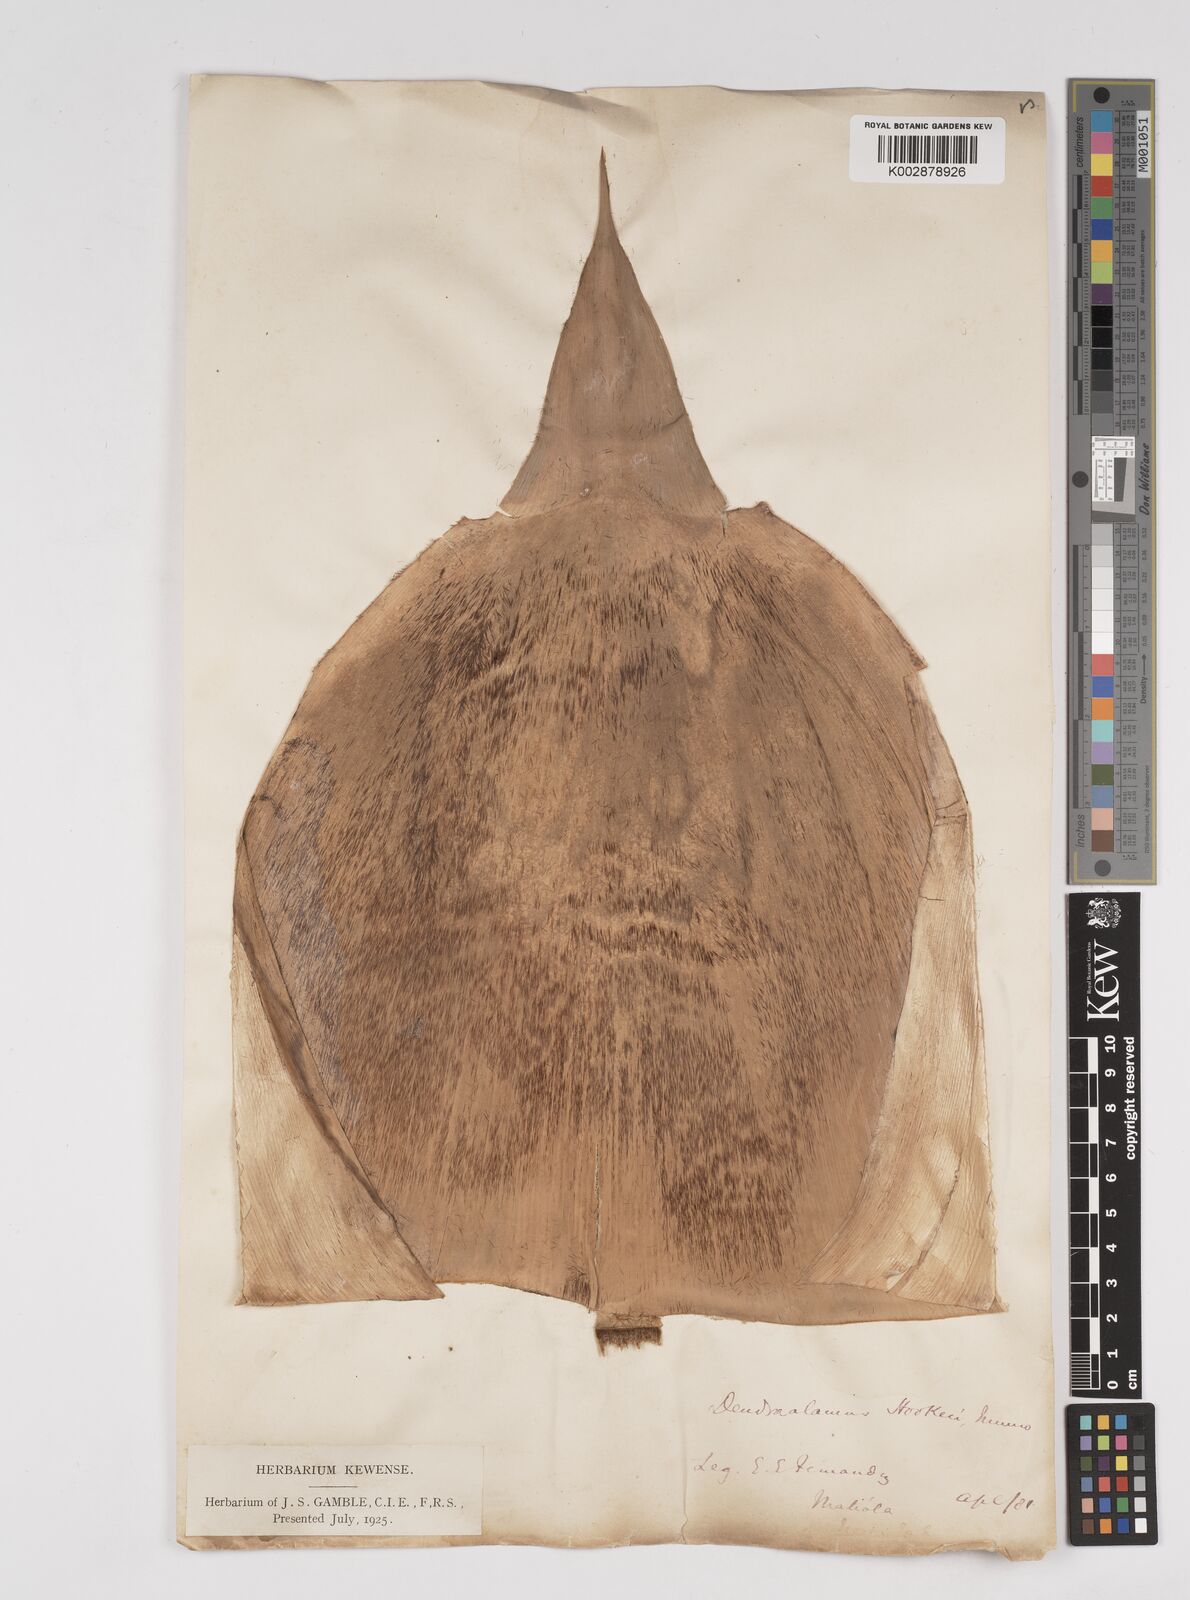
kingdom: Plantae
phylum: Tracheophyta
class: Liliopsida
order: Poales
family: Poaceae
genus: Dendrocalamus
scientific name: Dendrocalamus hookeri
